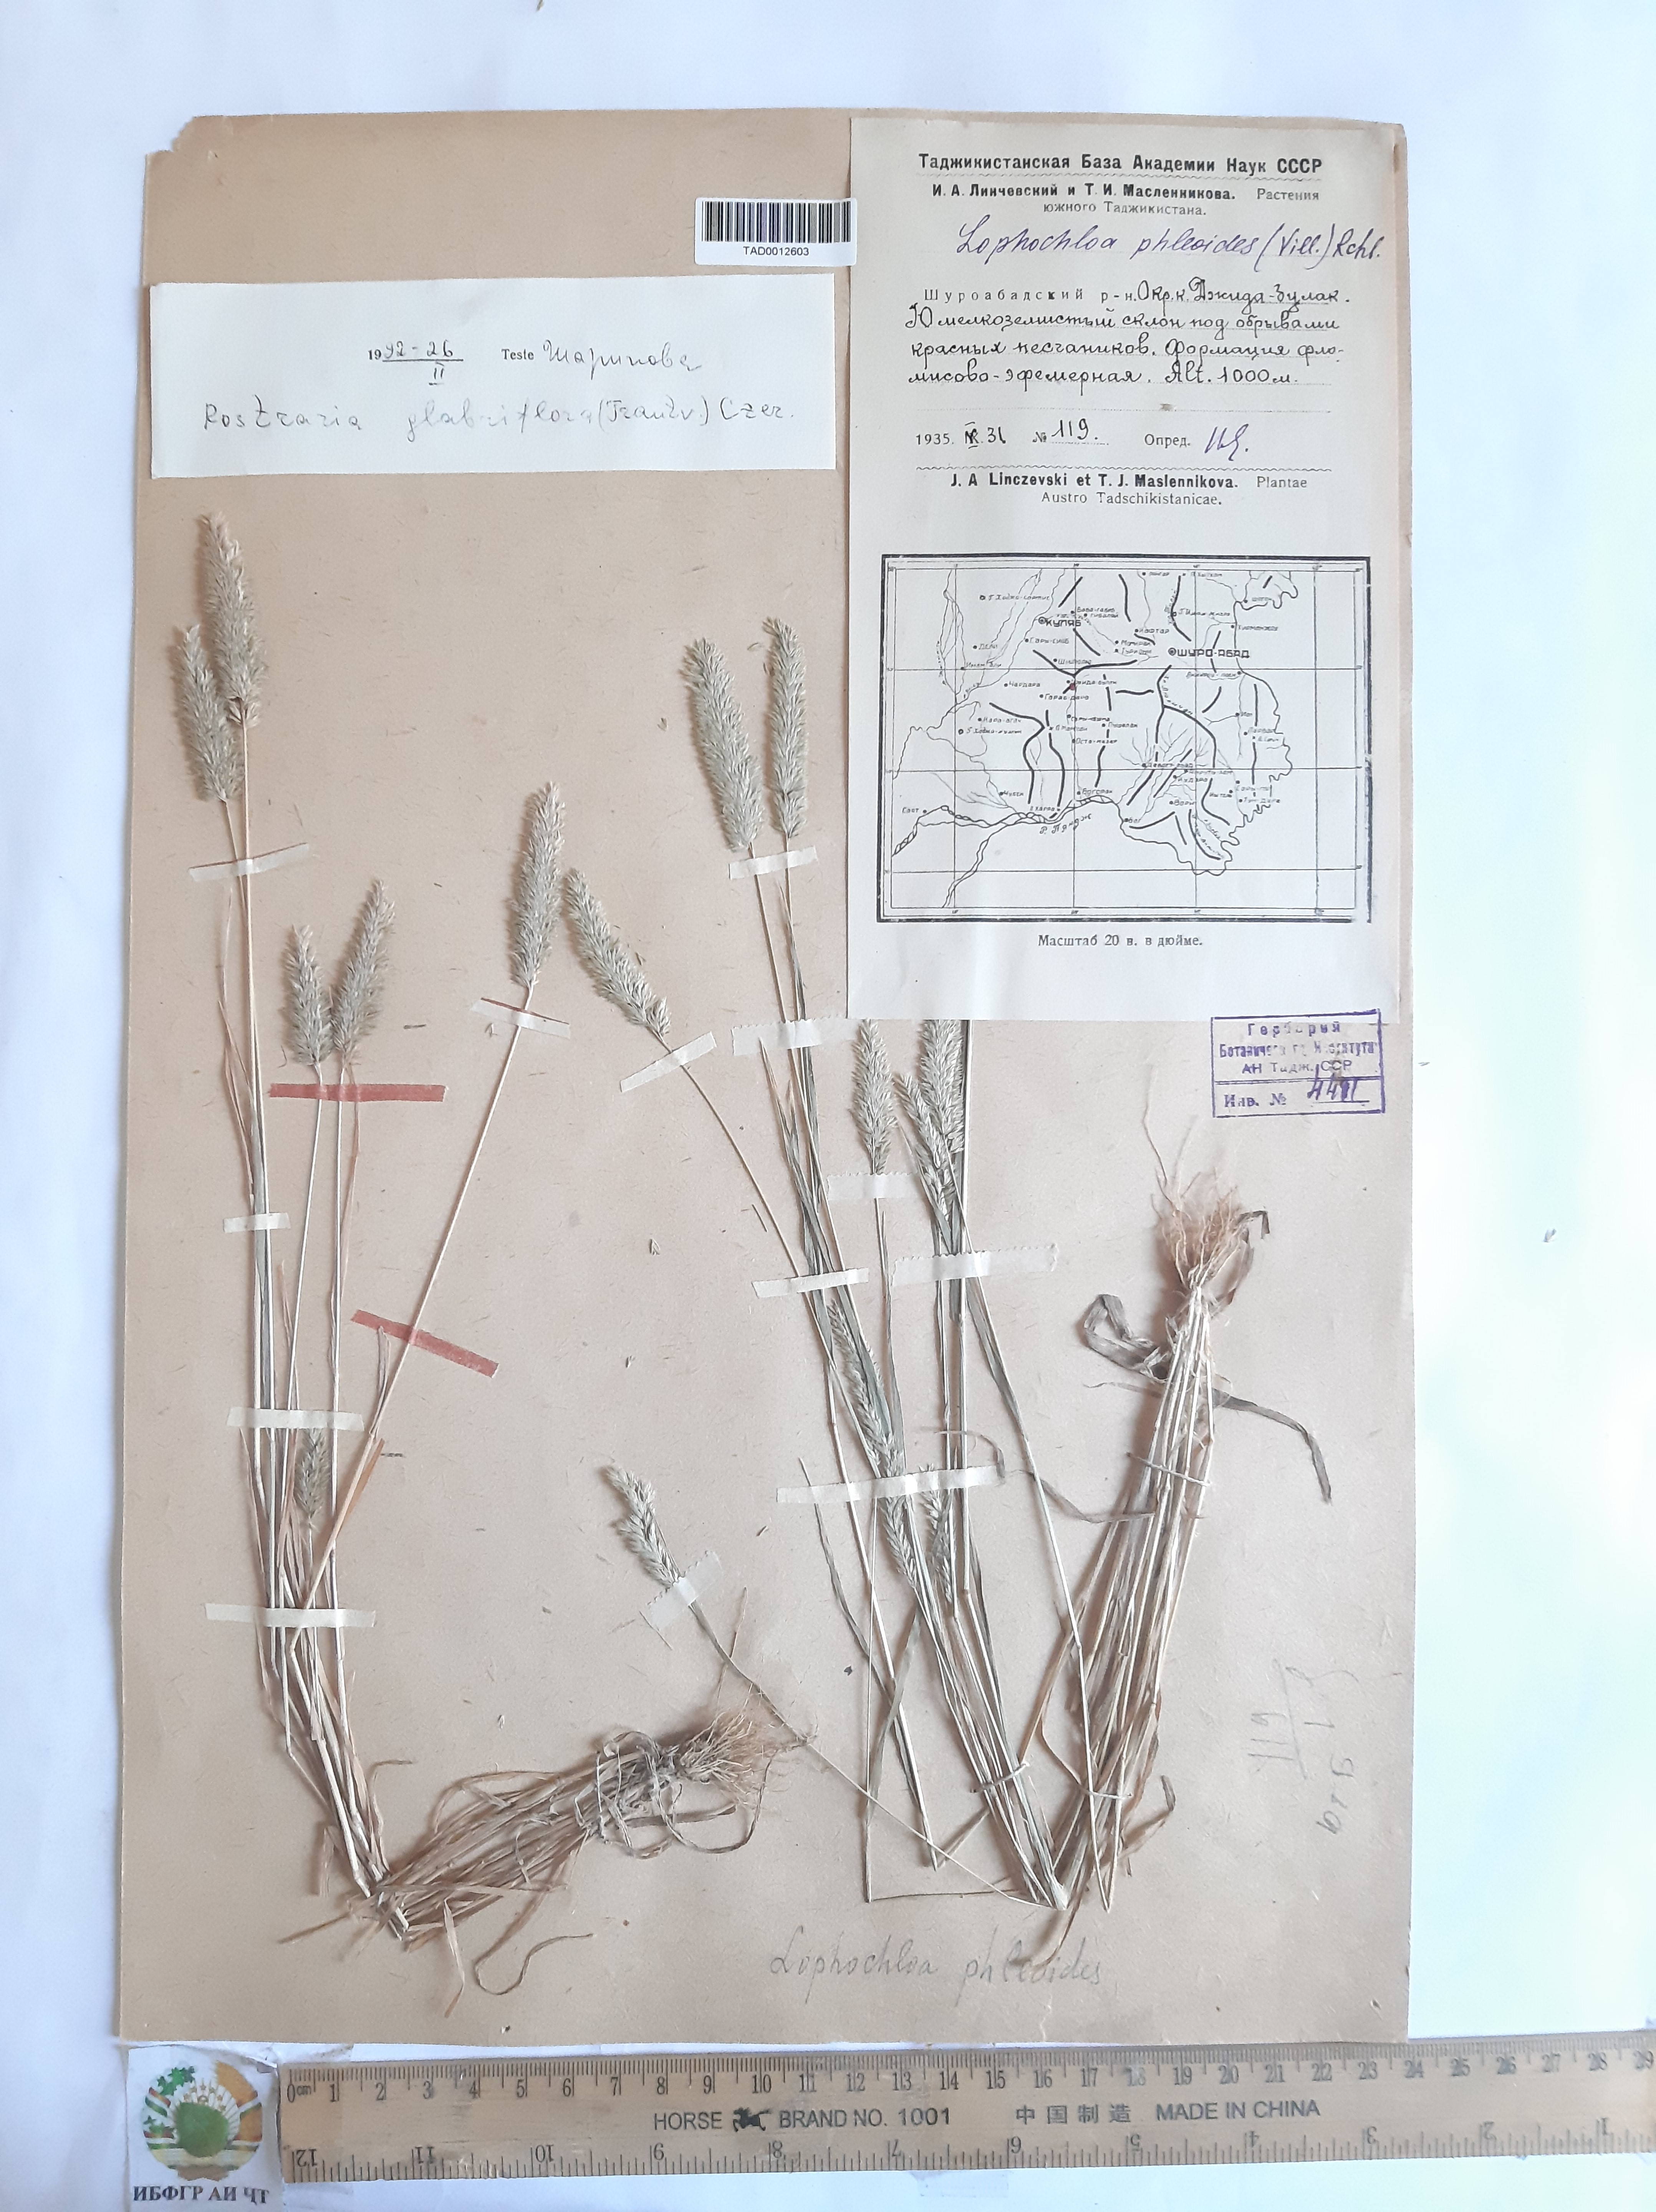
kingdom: Plantae
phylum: Tracheophyta
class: Liliopsida
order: Poales
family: Poaceae
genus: Rostraria
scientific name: Rostraria cristata
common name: Mediterranean hair-grass
